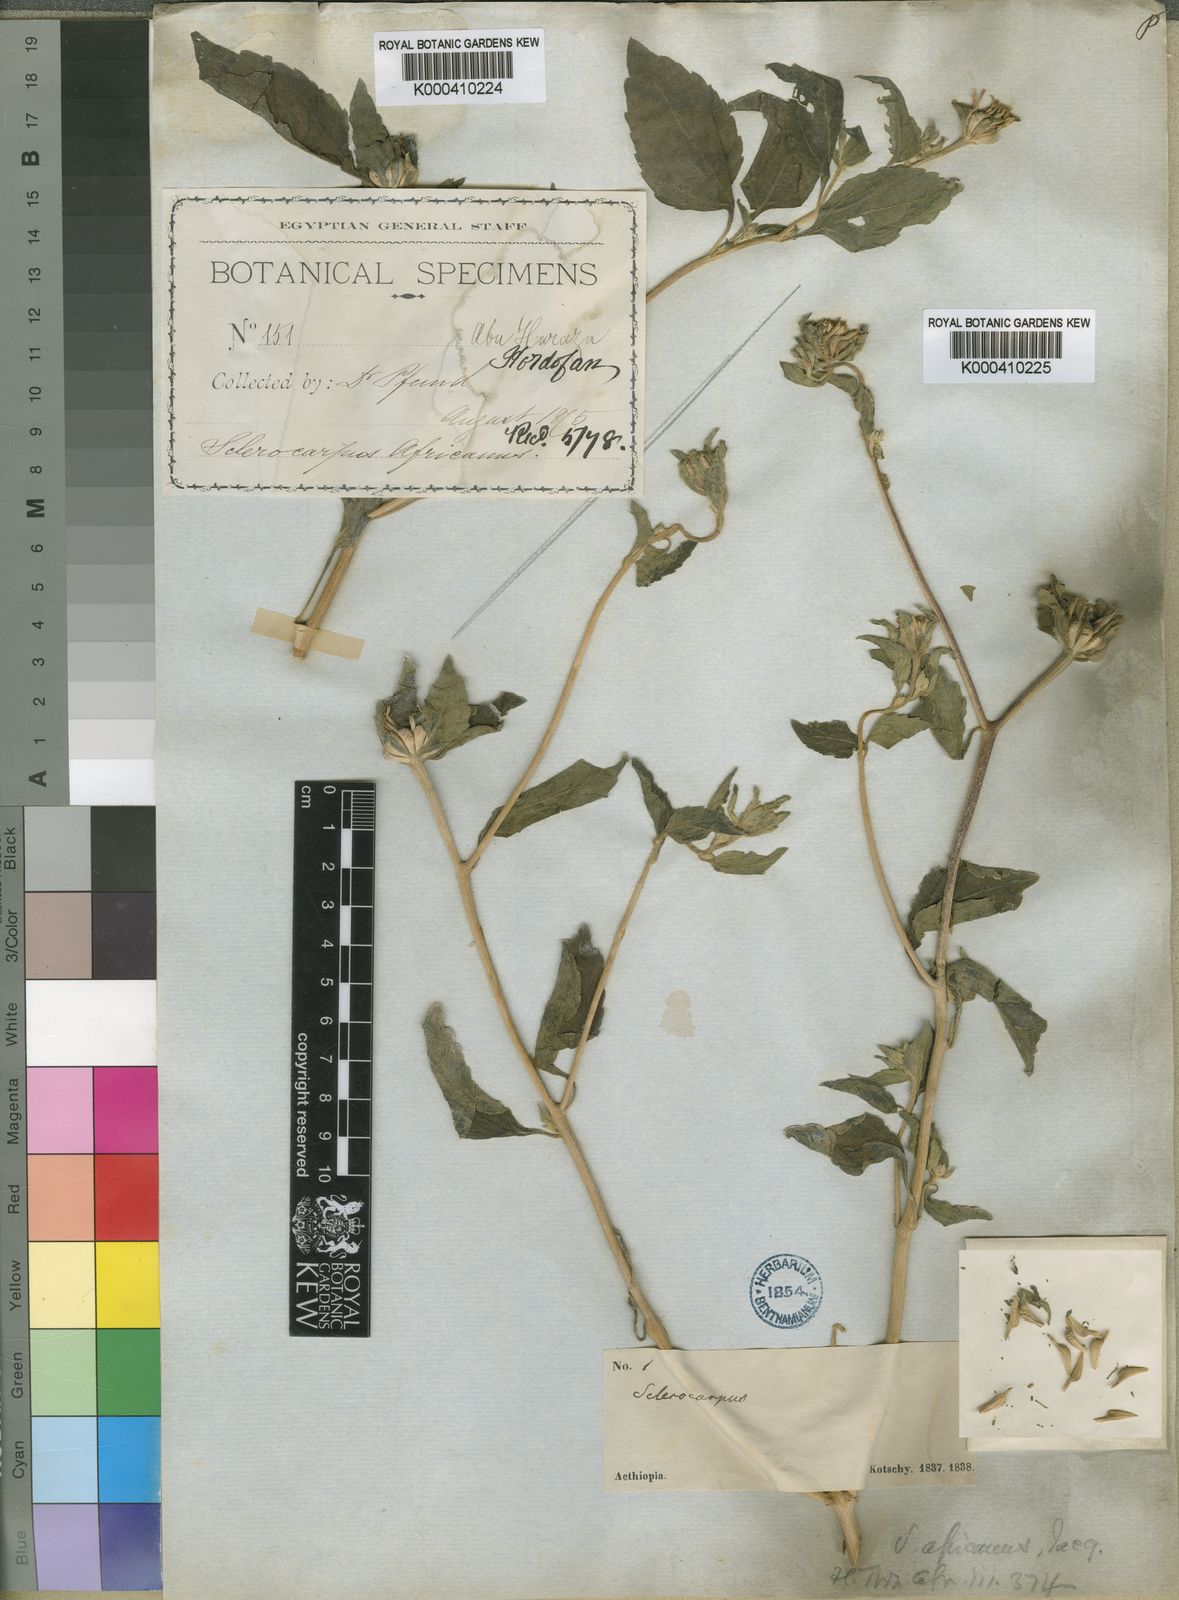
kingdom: Plantae
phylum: Tracheophyta
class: Magnoliopsida
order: Asterales
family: Asteraceae
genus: Sclerocarpus
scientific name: Sclerocarpus
